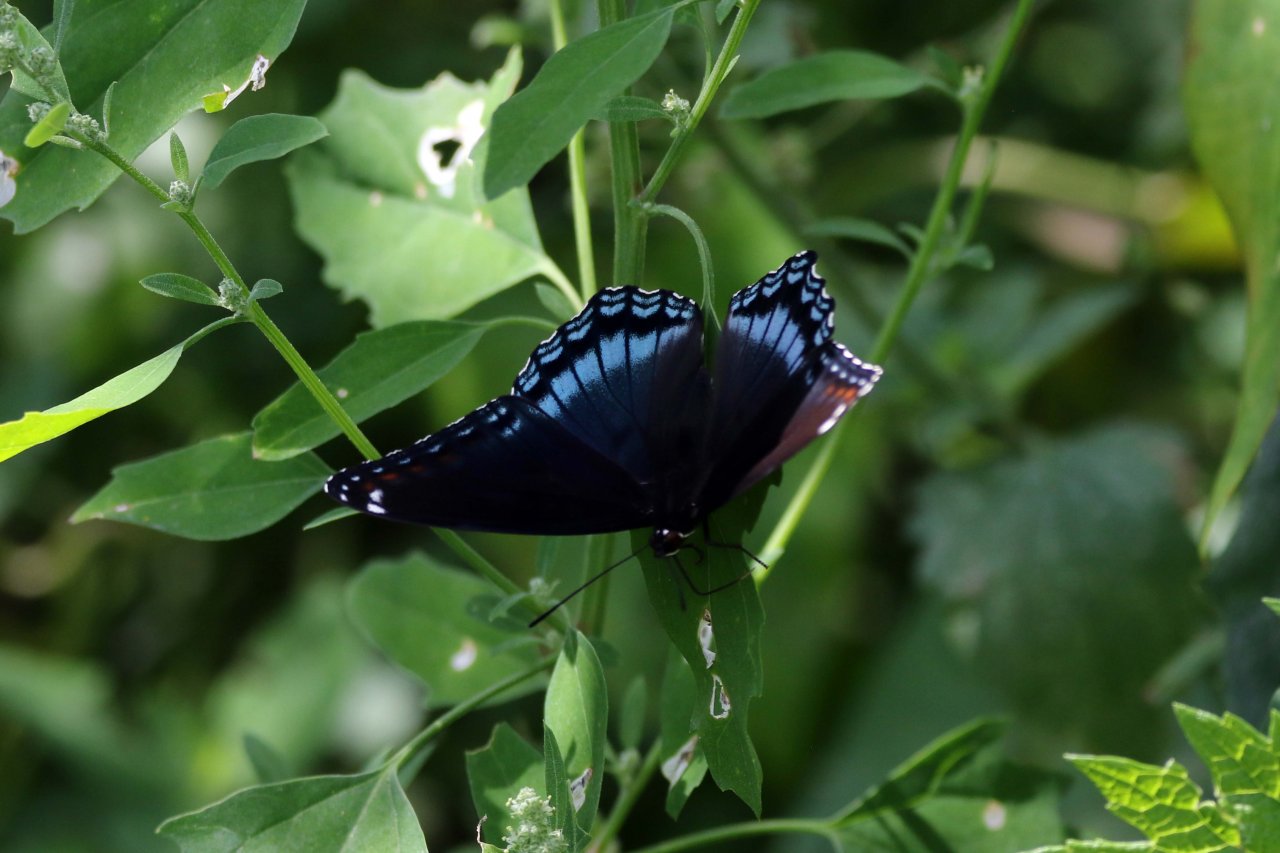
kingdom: Animalia
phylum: Arthropoda
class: Insecta
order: Lepidoptera
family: Nymphalidae
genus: Limenitis
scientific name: Limenitis astyanax
